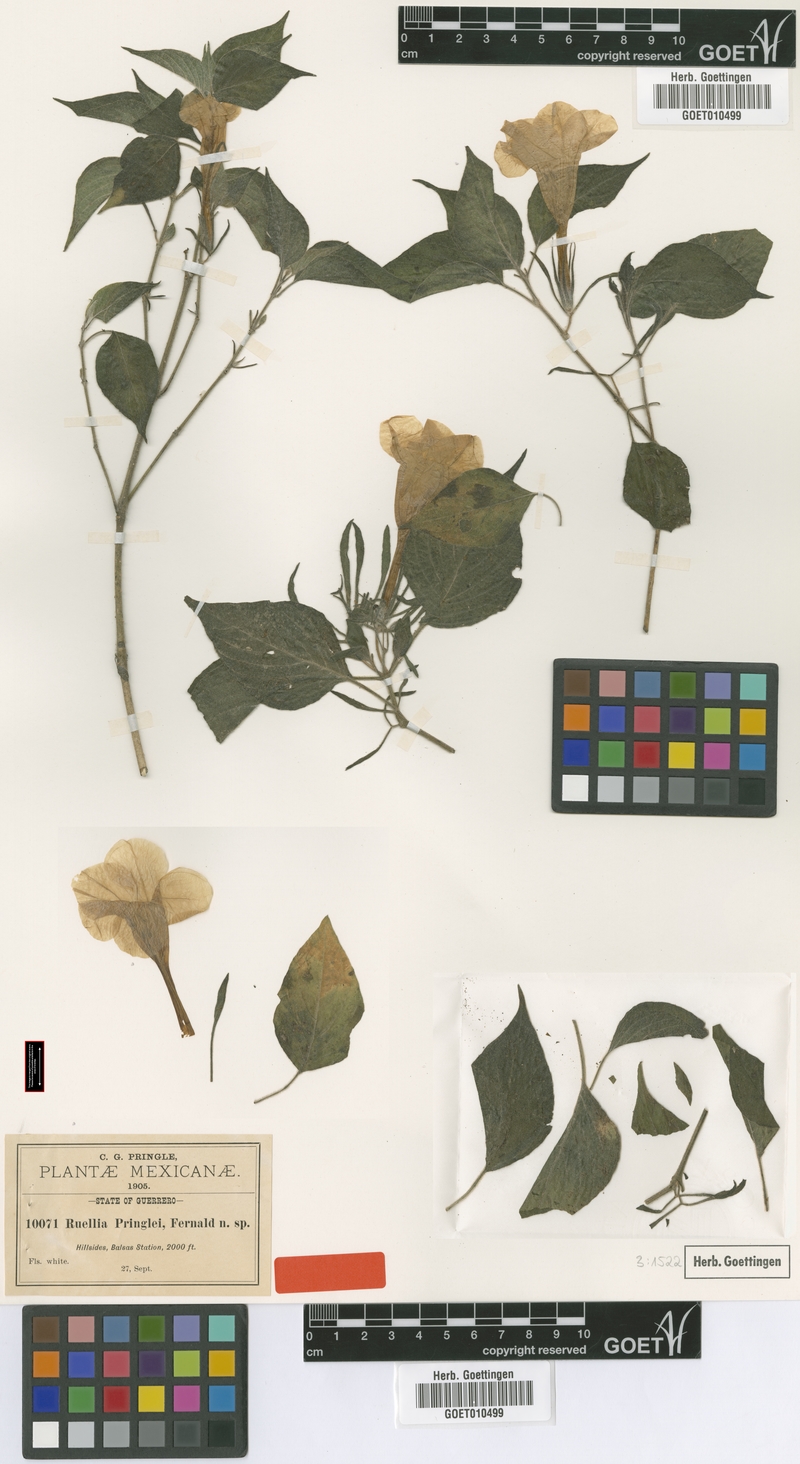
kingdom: Plantae
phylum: Tracheophyta
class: Magnoliopsida
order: Lamiales
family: Acanthaceae
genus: Ruellia
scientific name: Ruellia pringlei
